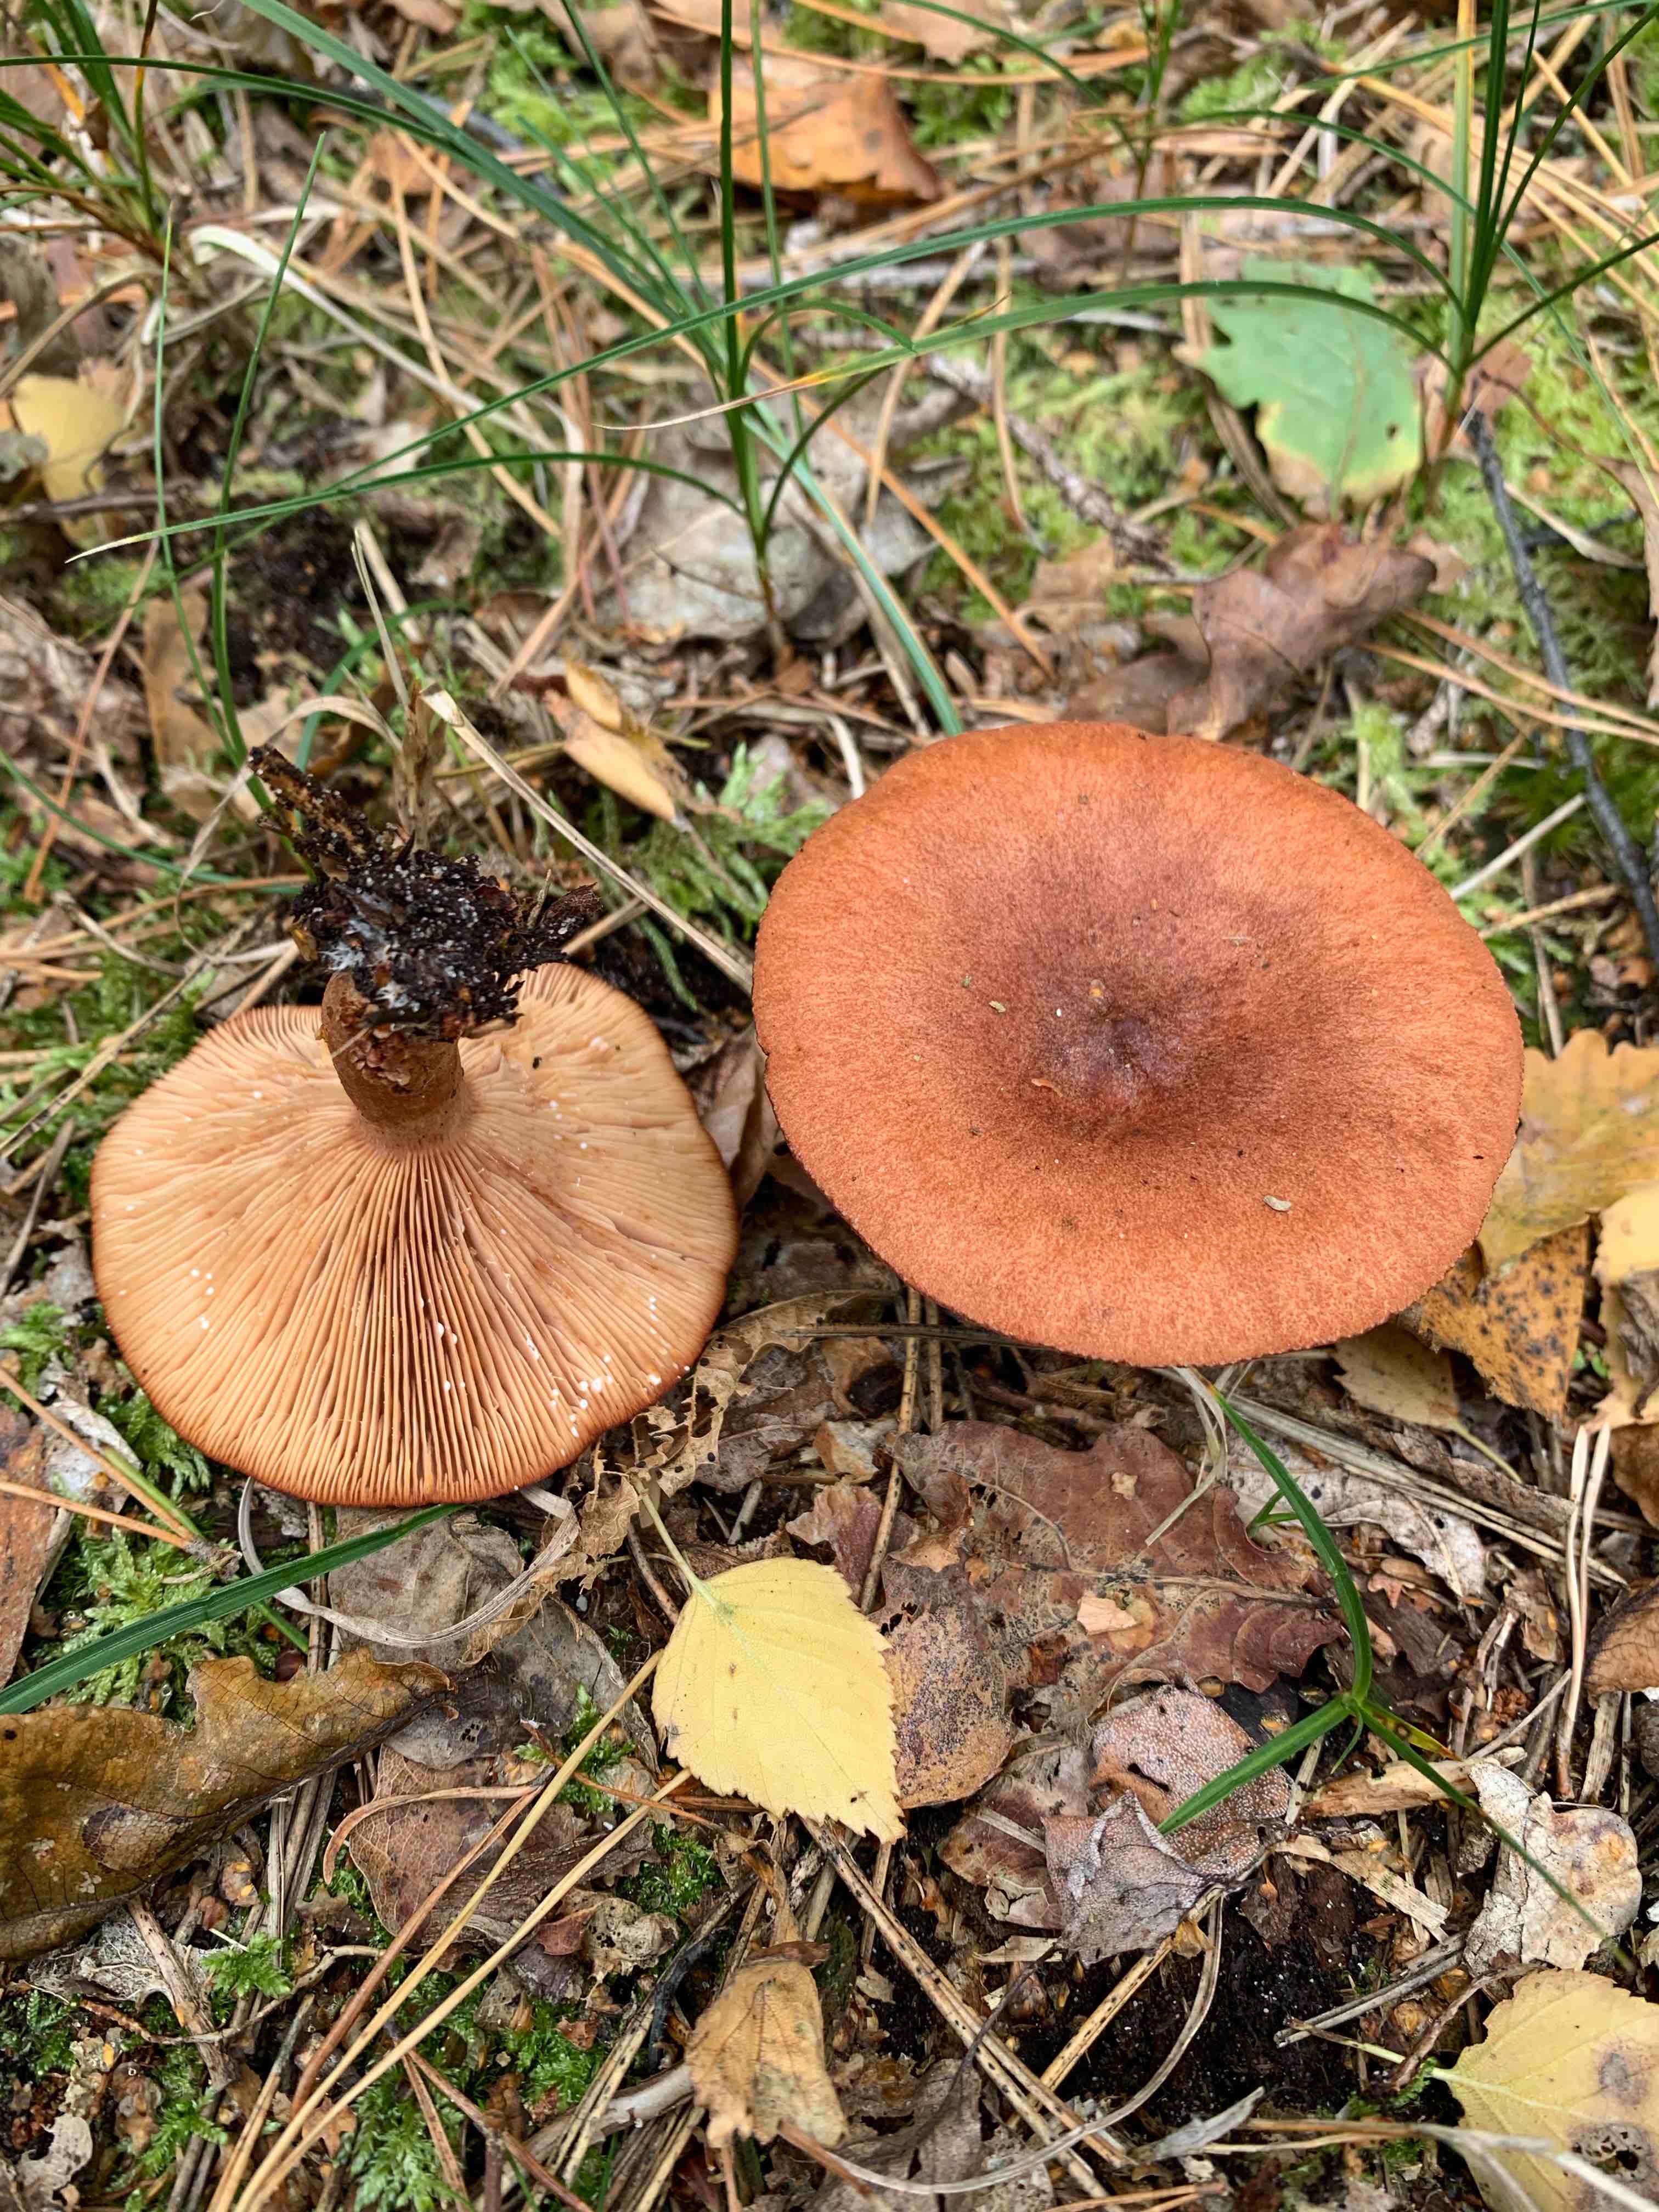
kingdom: Fungi
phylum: Basidiomycota
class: Agaricomycetes
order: Russulales
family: Russulaceae
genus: Lactarius
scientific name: Lactarius rufus
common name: rødbrun mælkehat
